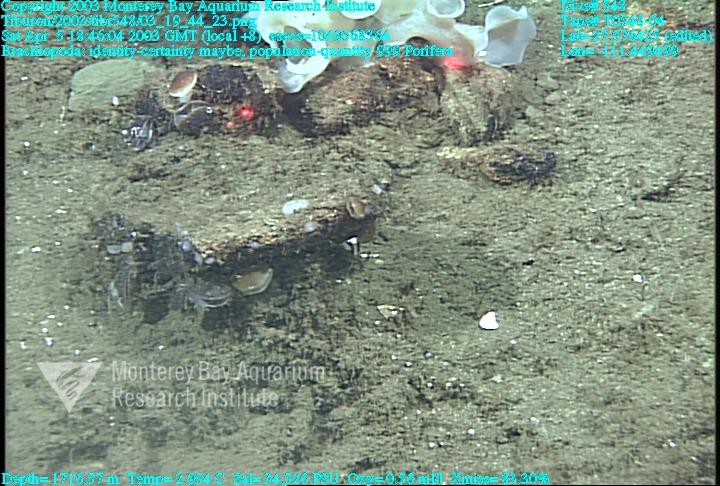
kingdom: Animalia
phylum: Porifera
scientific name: Porifera
